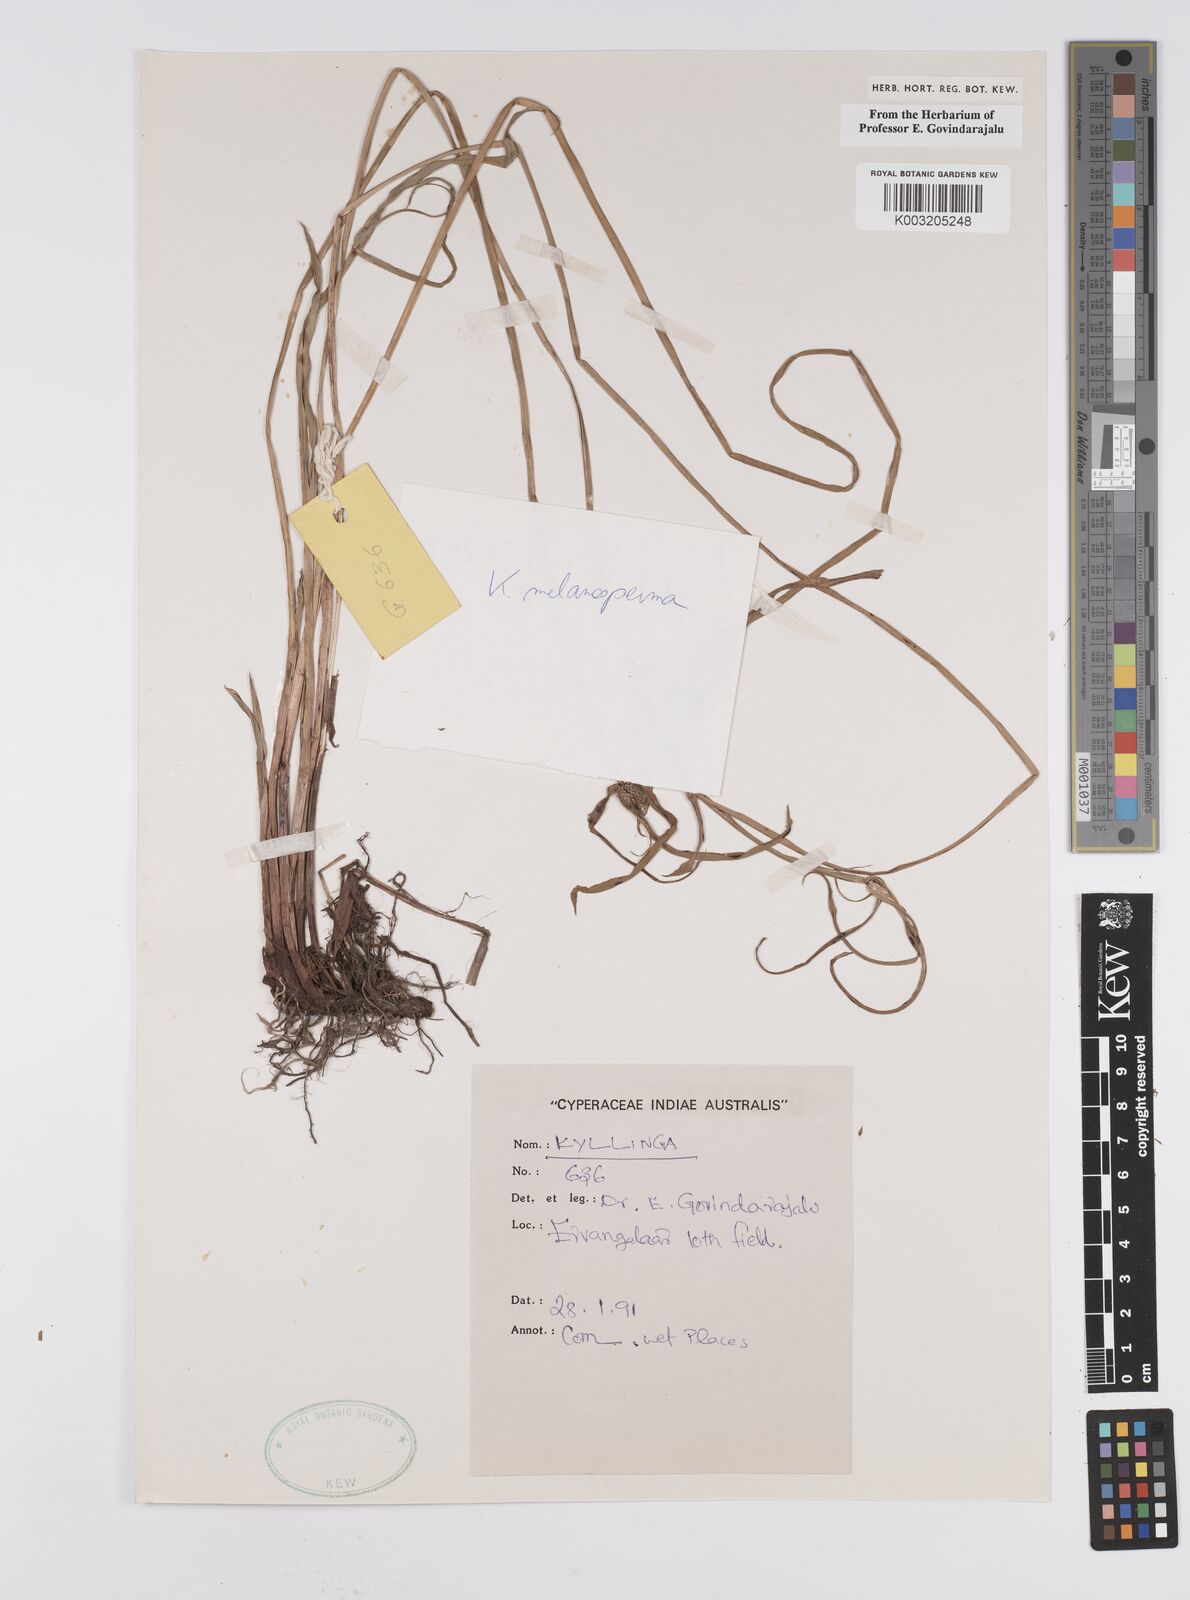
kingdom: Plantae
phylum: Tracheophyta
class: Liliopsida
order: Poales
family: Cyperaceae
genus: Cyperus
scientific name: Cyperus melanospermus
